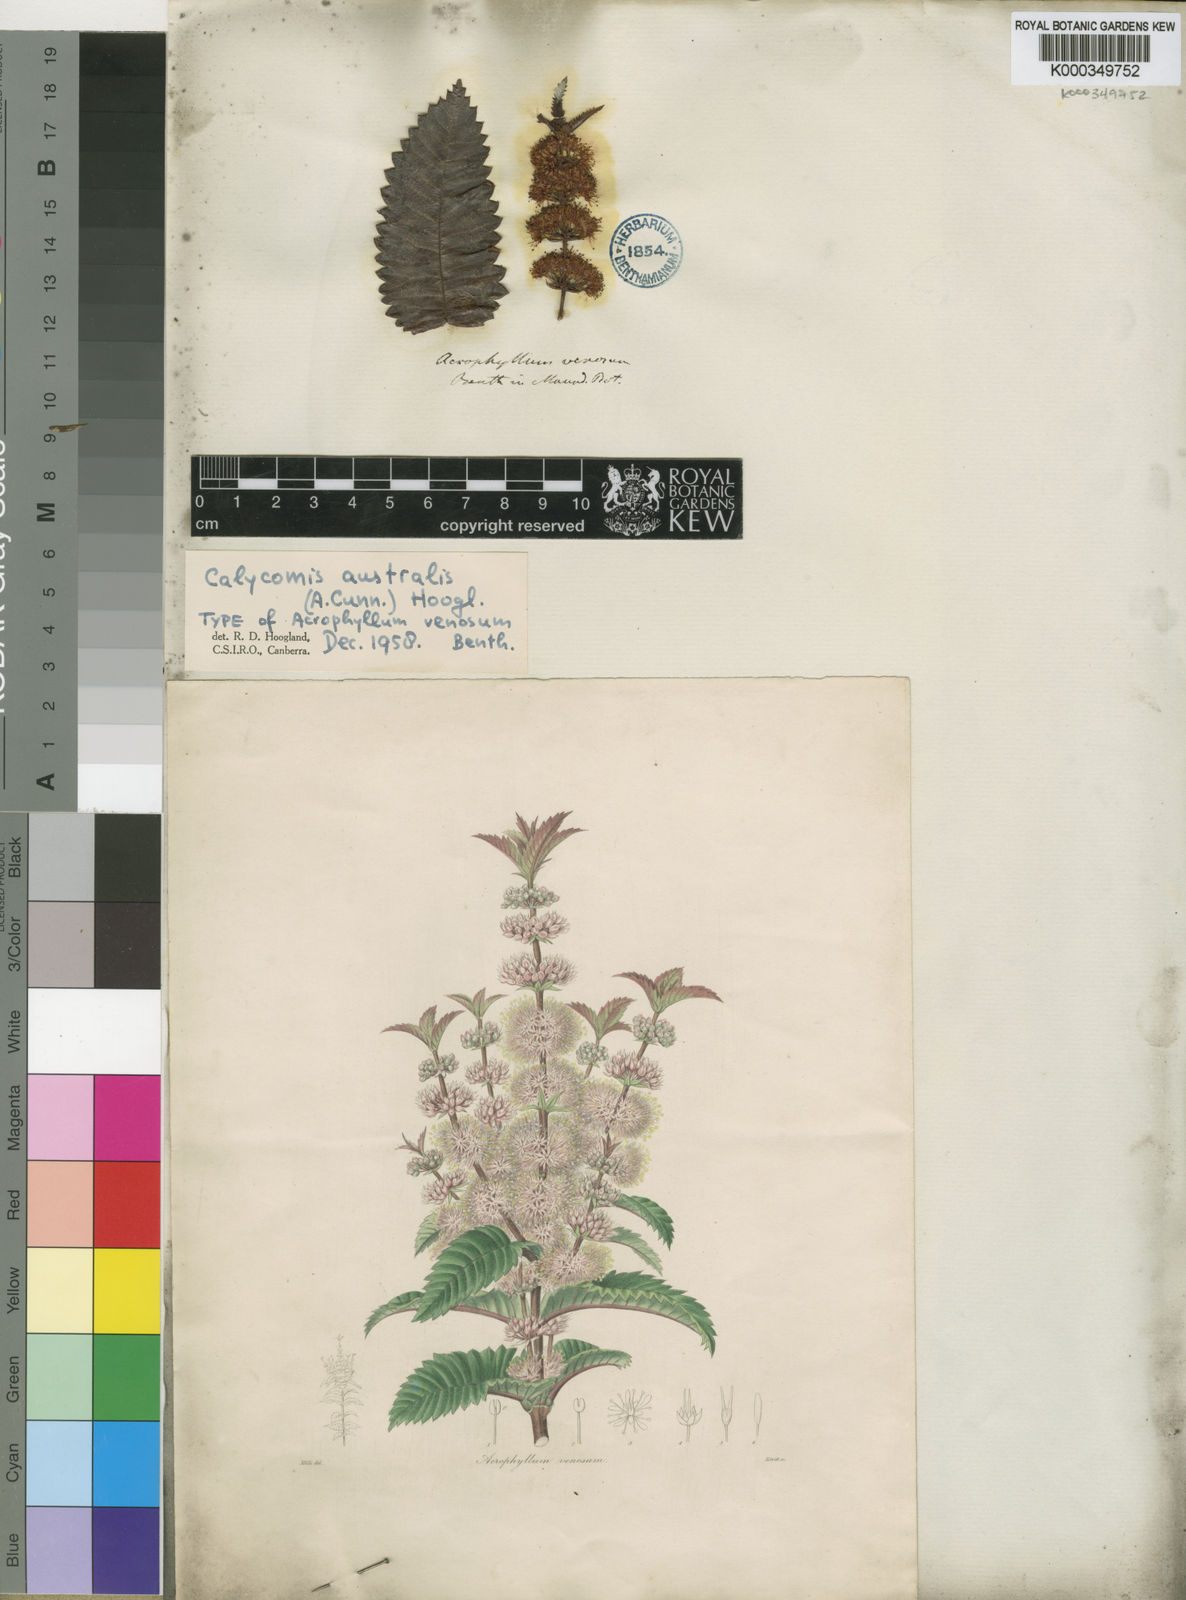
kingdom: Plantae
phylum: Tracheophyta
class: Magnoliopsida
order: Oxalidales
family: Cunoniaceae
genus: Acrophyllum
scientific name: Acrophyllum australe
